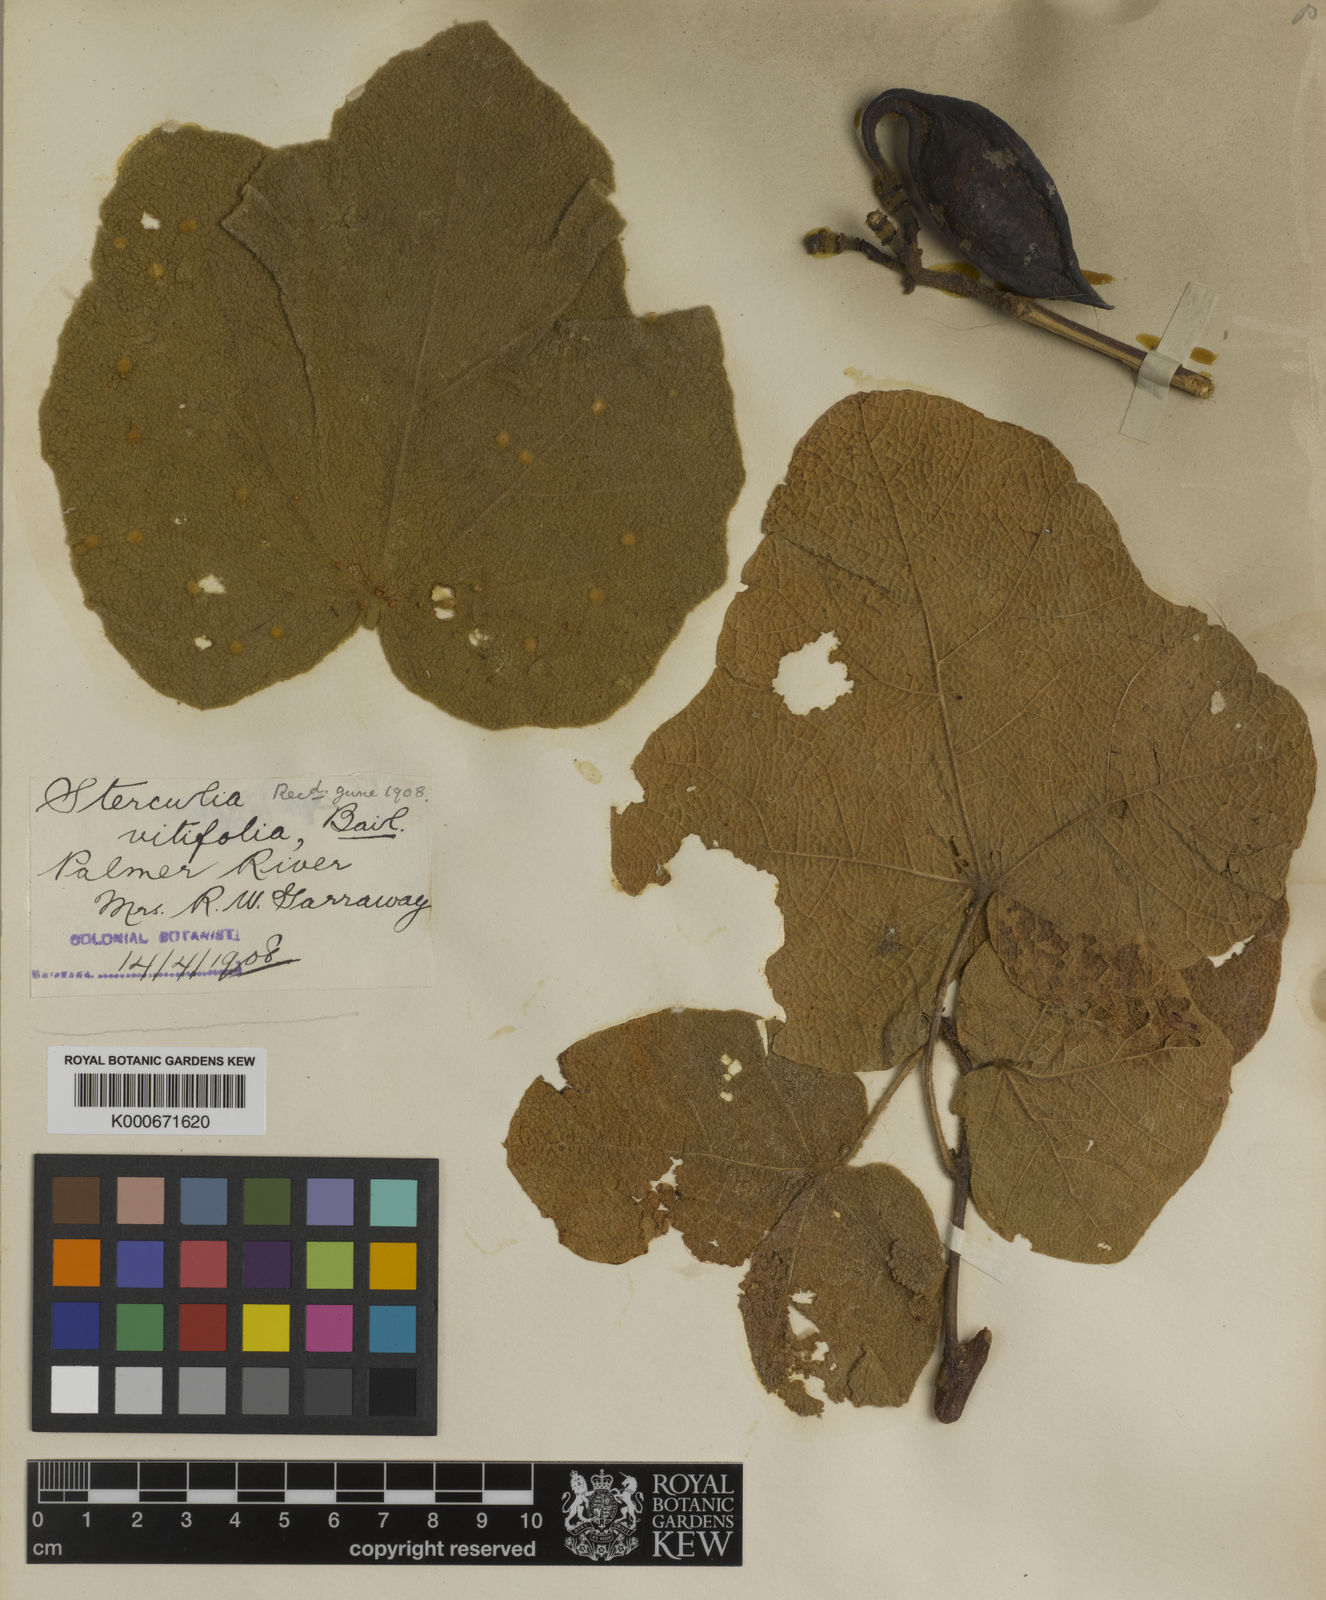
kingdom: Plantae
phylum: Tracheophyta
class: Magnoliopsida
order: Malvales
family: Malvaceae
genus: Brachychiton
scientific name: Brachychiton vitifolius
